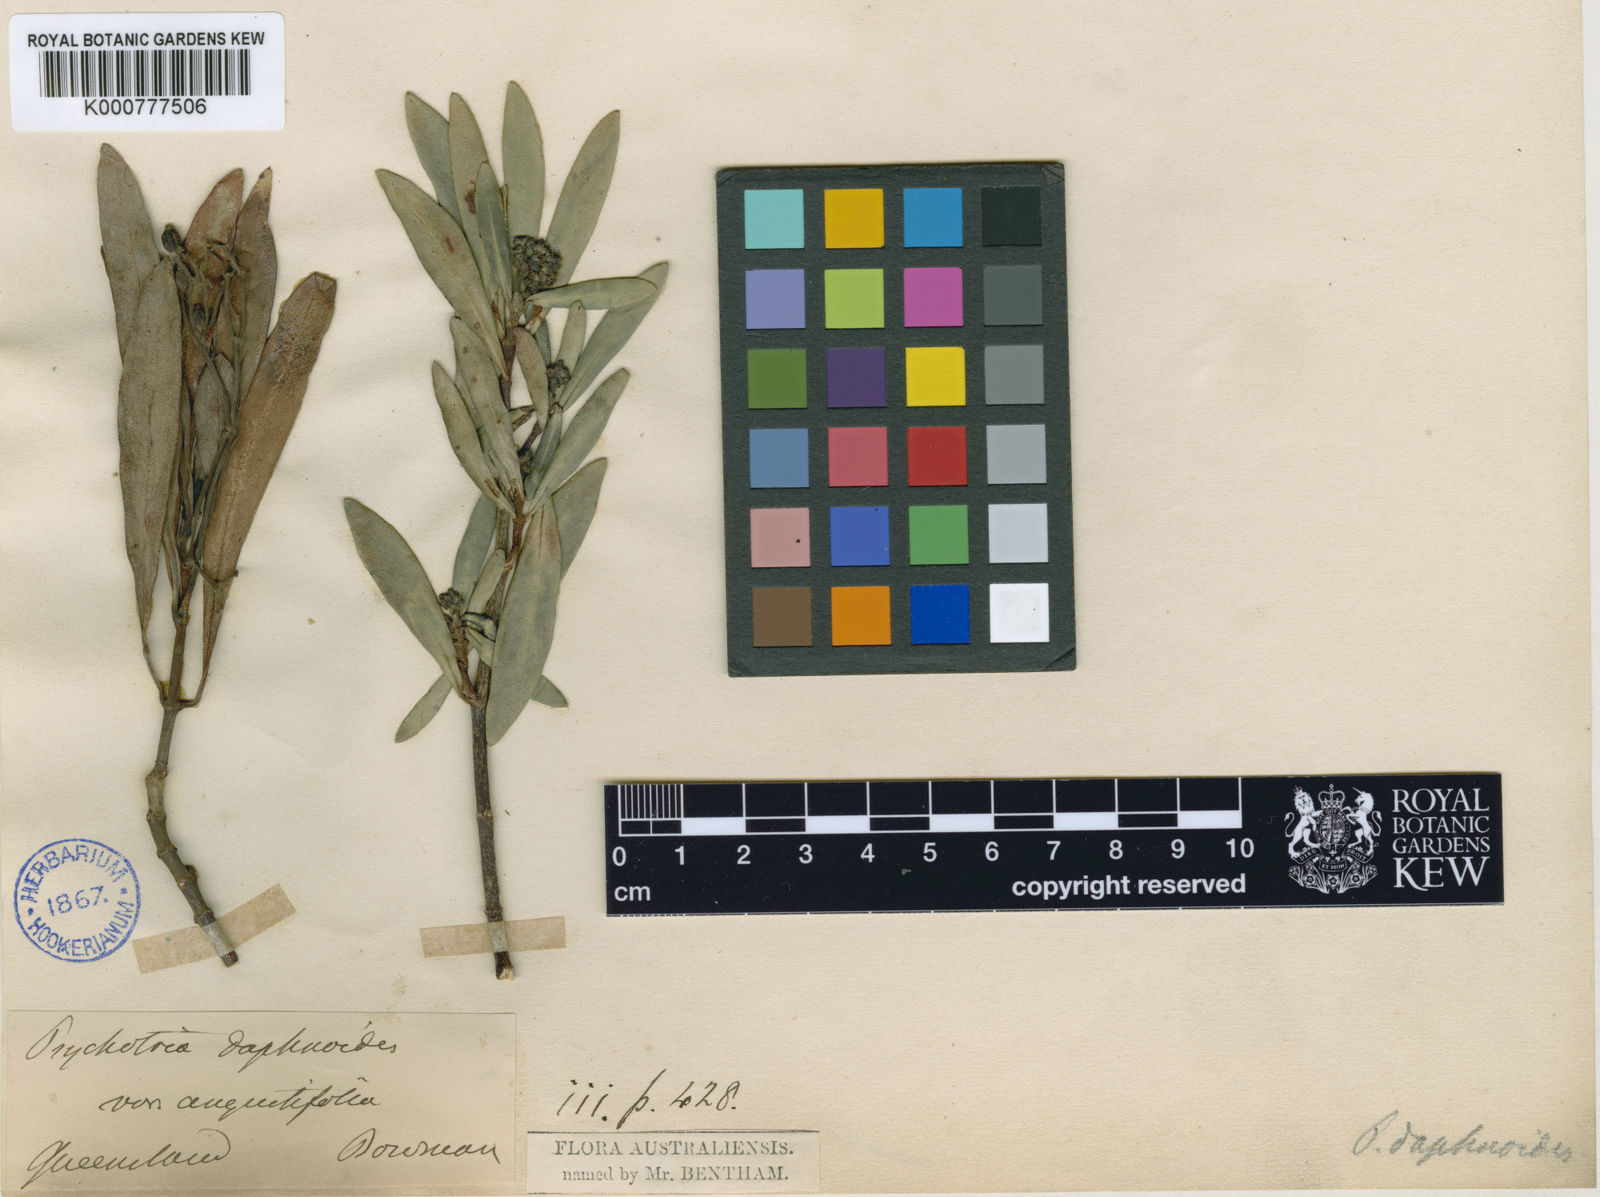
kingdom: Plantae
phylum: Tracheophyta
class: Magnoliopsida
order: Gentianales
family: Rubiaceae
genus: Psychotria
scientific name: Psychotria daphnoides
